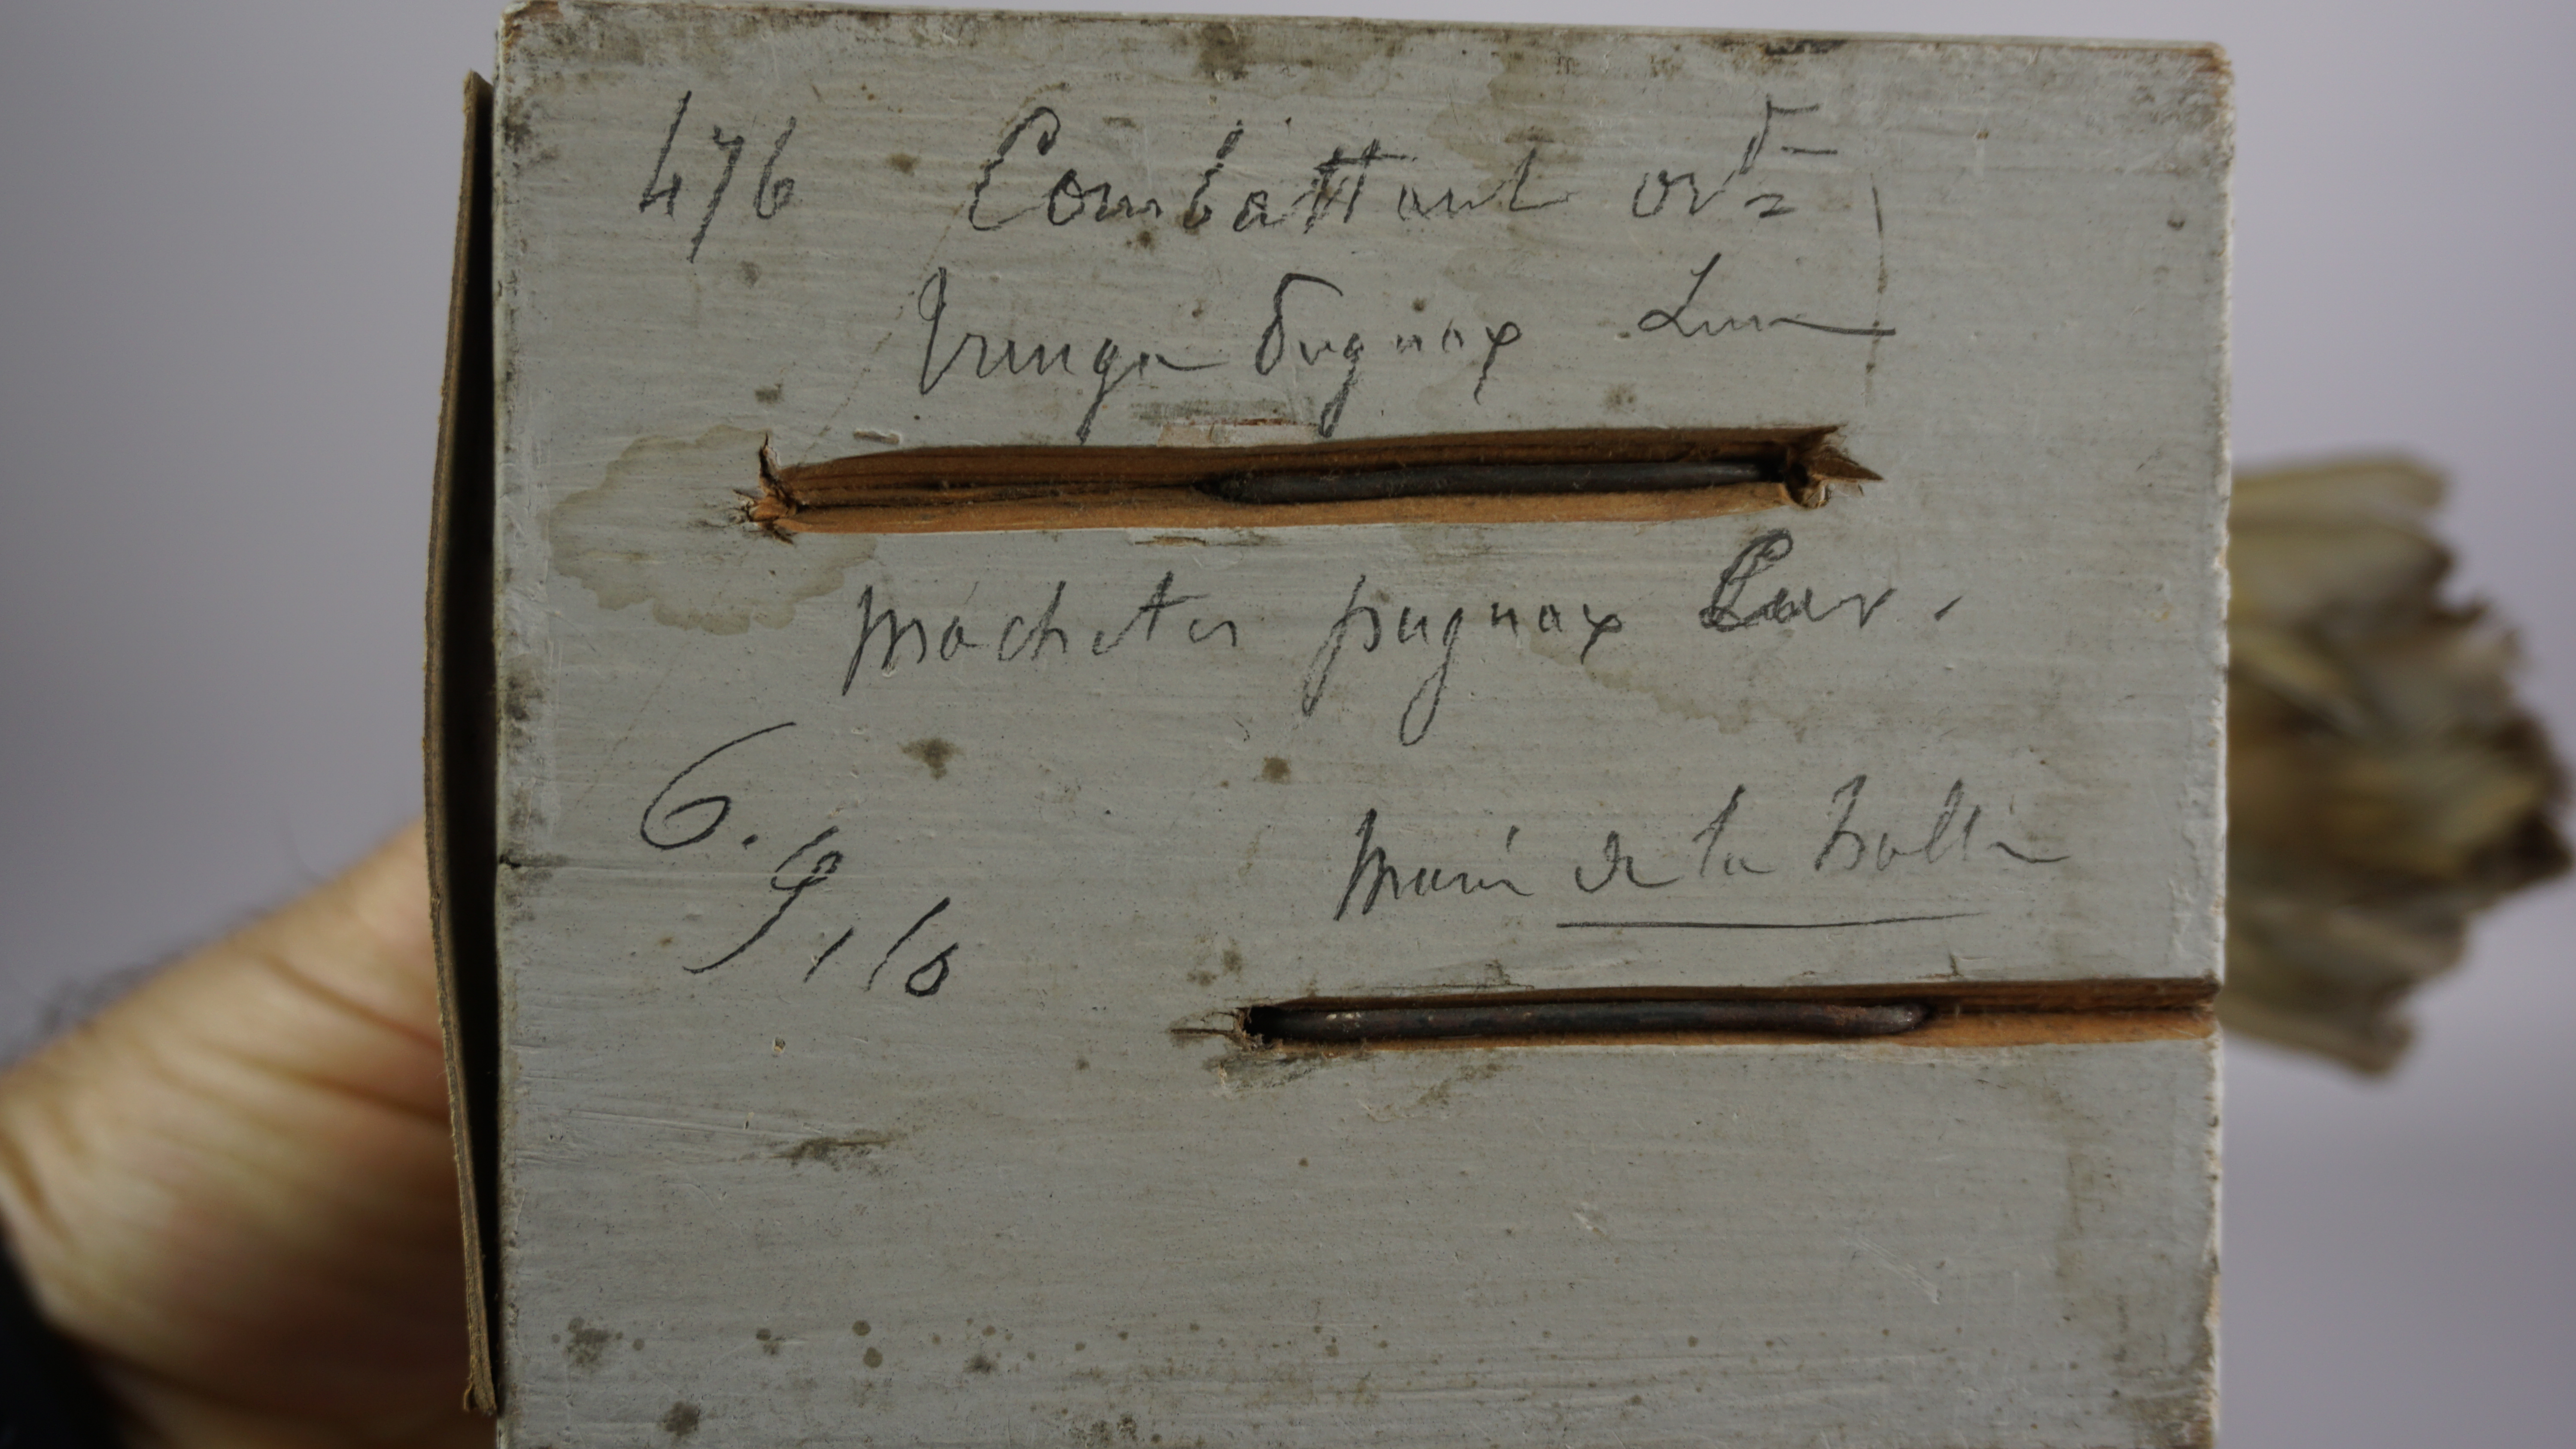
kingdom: Animalia
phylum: Chordata
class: Aves
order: Charadriiformes
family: Scolopacidae
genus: Calidris
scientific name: Calidris pugnax
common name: Ruff
